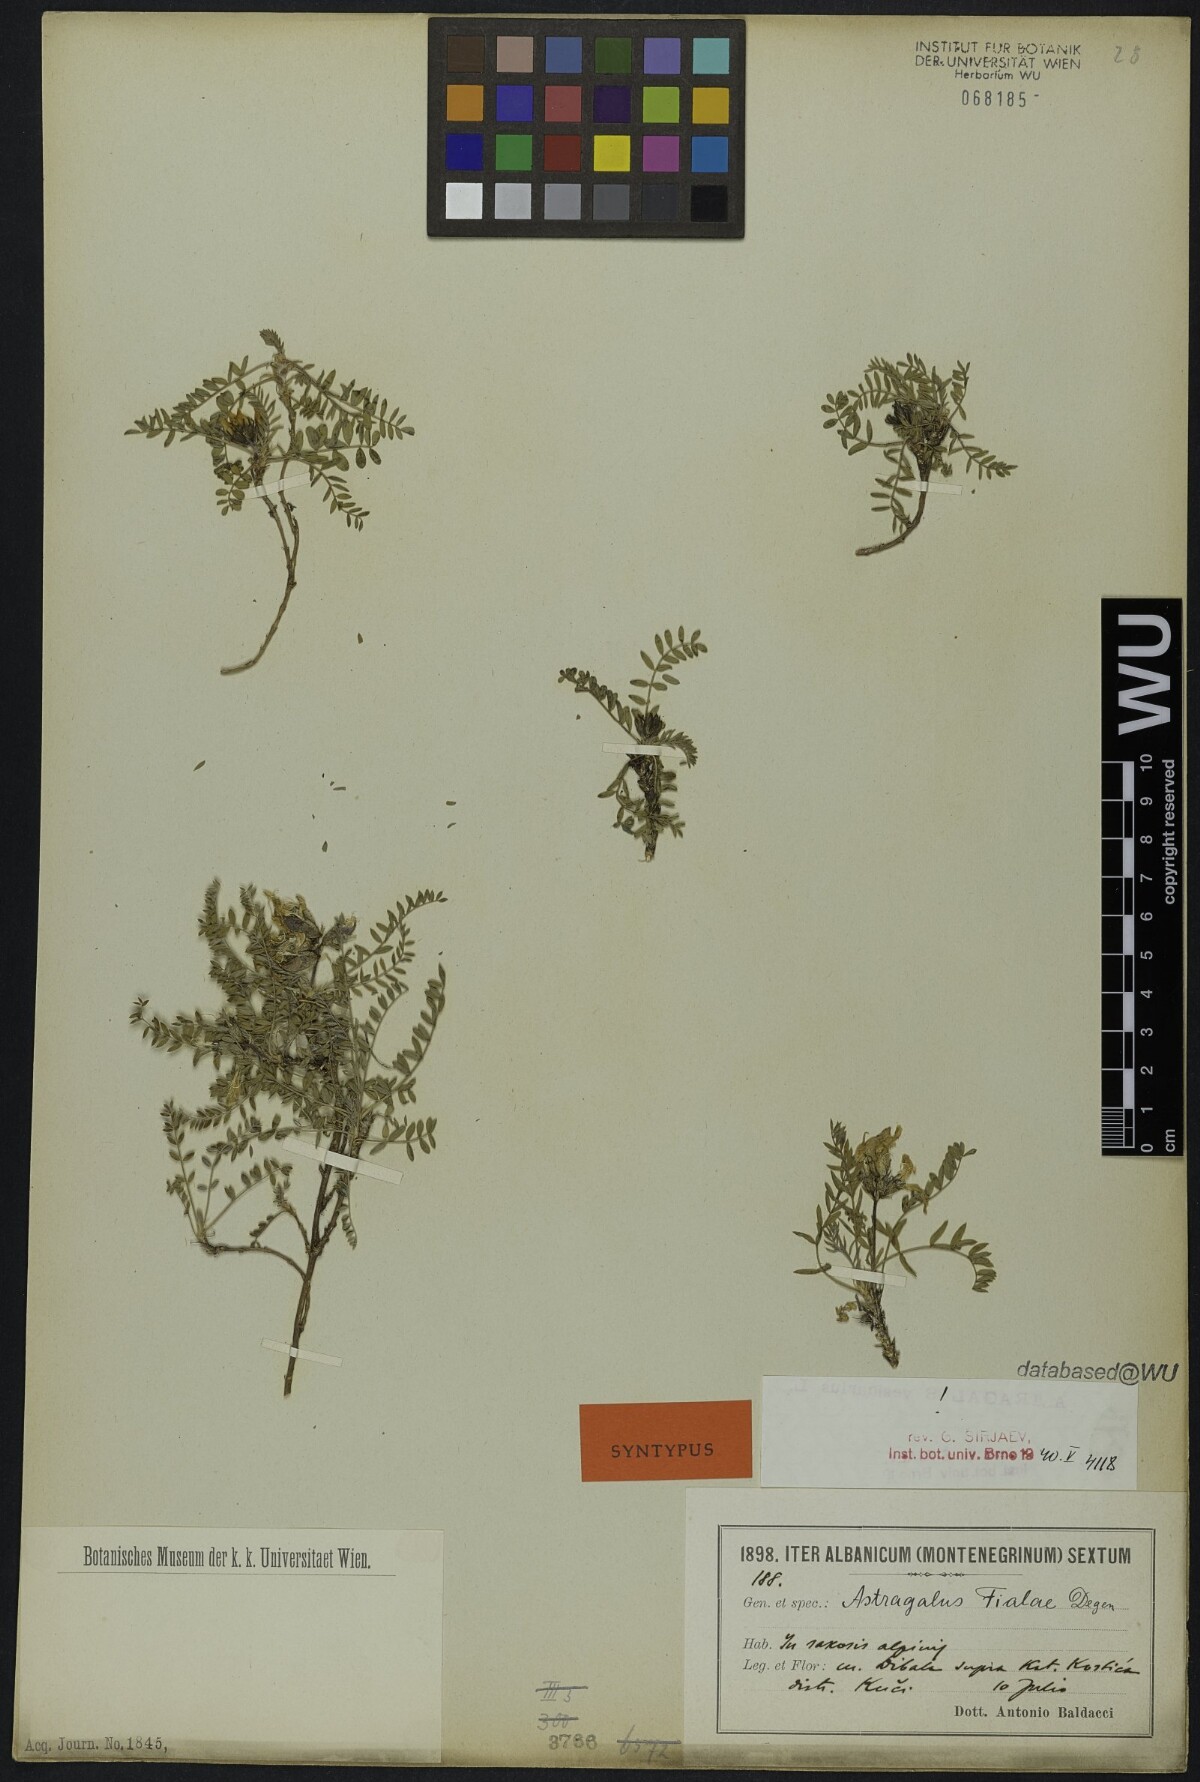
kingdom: Plantae
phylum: Tracheophyta
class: Magnoliopsida
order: Fabales
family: Fabaceae
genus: Astragalus
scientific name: Astragalus fialae
